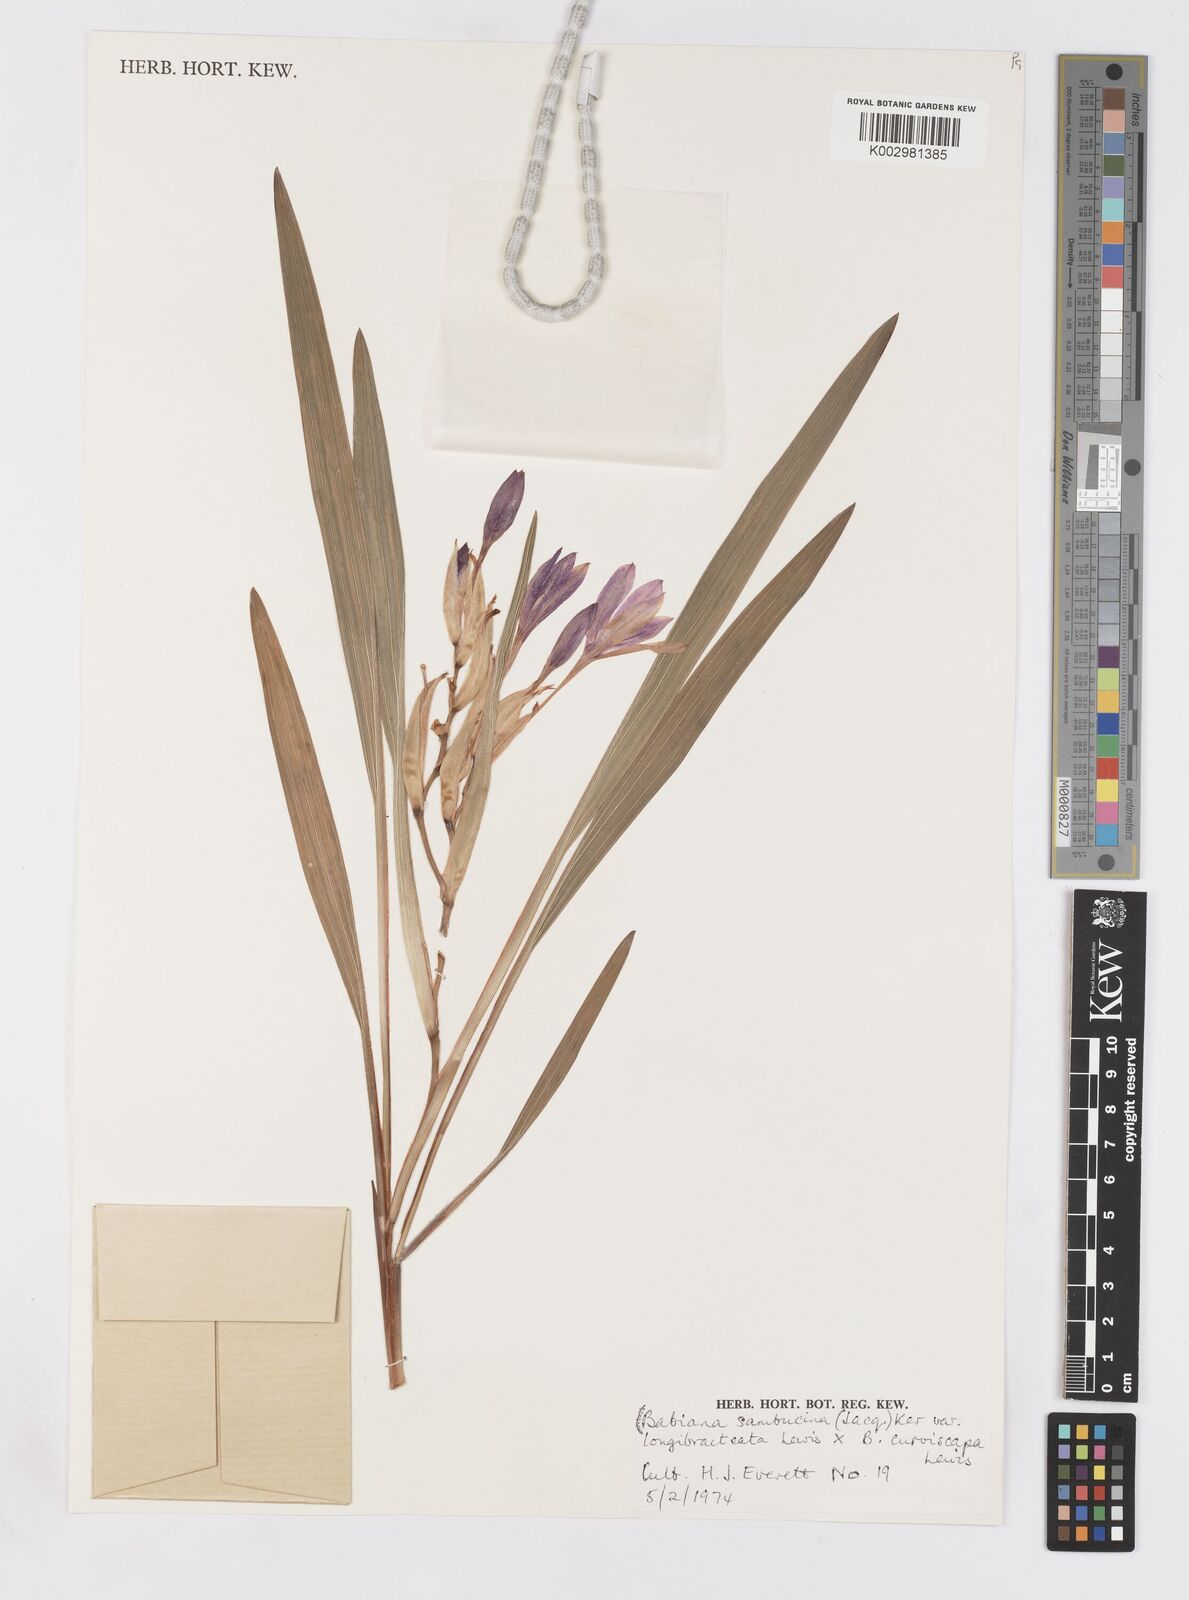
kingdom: Plantae
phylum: Tracheophyta
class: Liliopsida
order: Asparagales
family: Iridaceae
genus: Babiana
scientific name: Babiana sambucina
